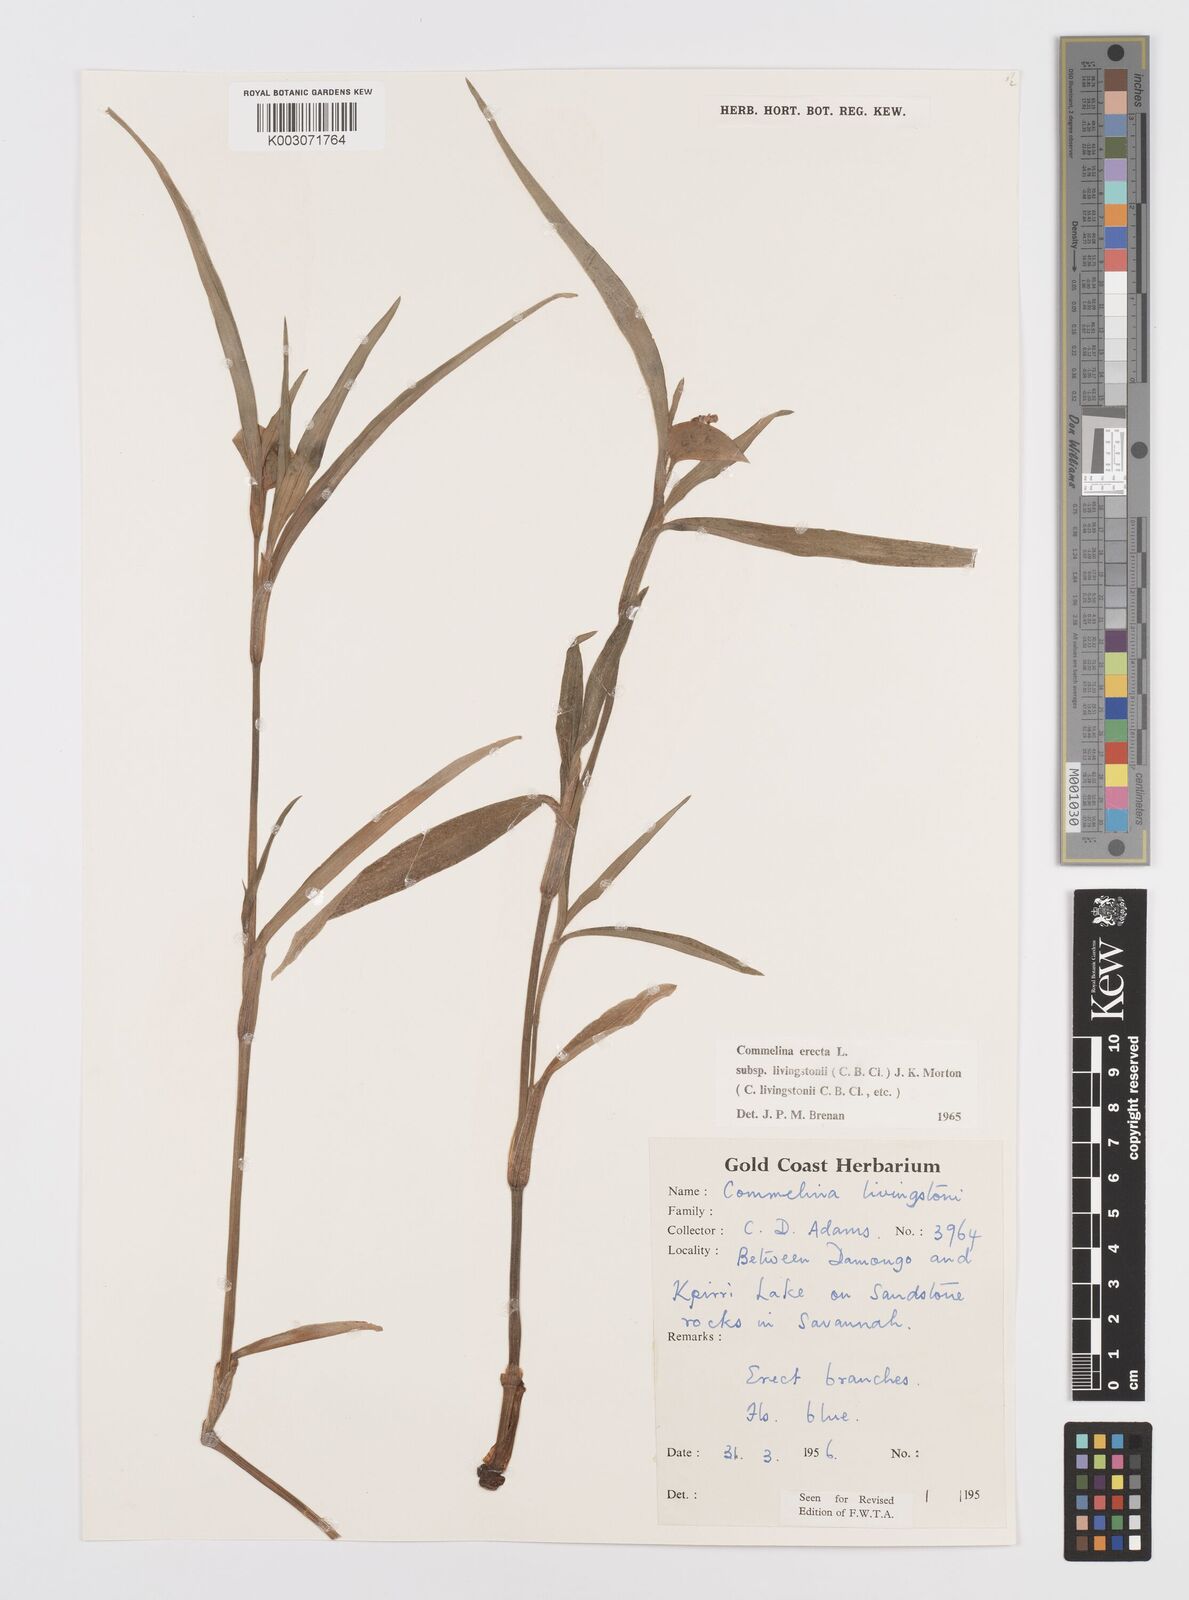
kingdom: Plantae
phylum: Tracheophyta
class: Liliopsida
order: Commelinales
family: Commelinaceae
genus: Commelina
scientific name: Commelina erecta
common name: Blousel blommetjie
